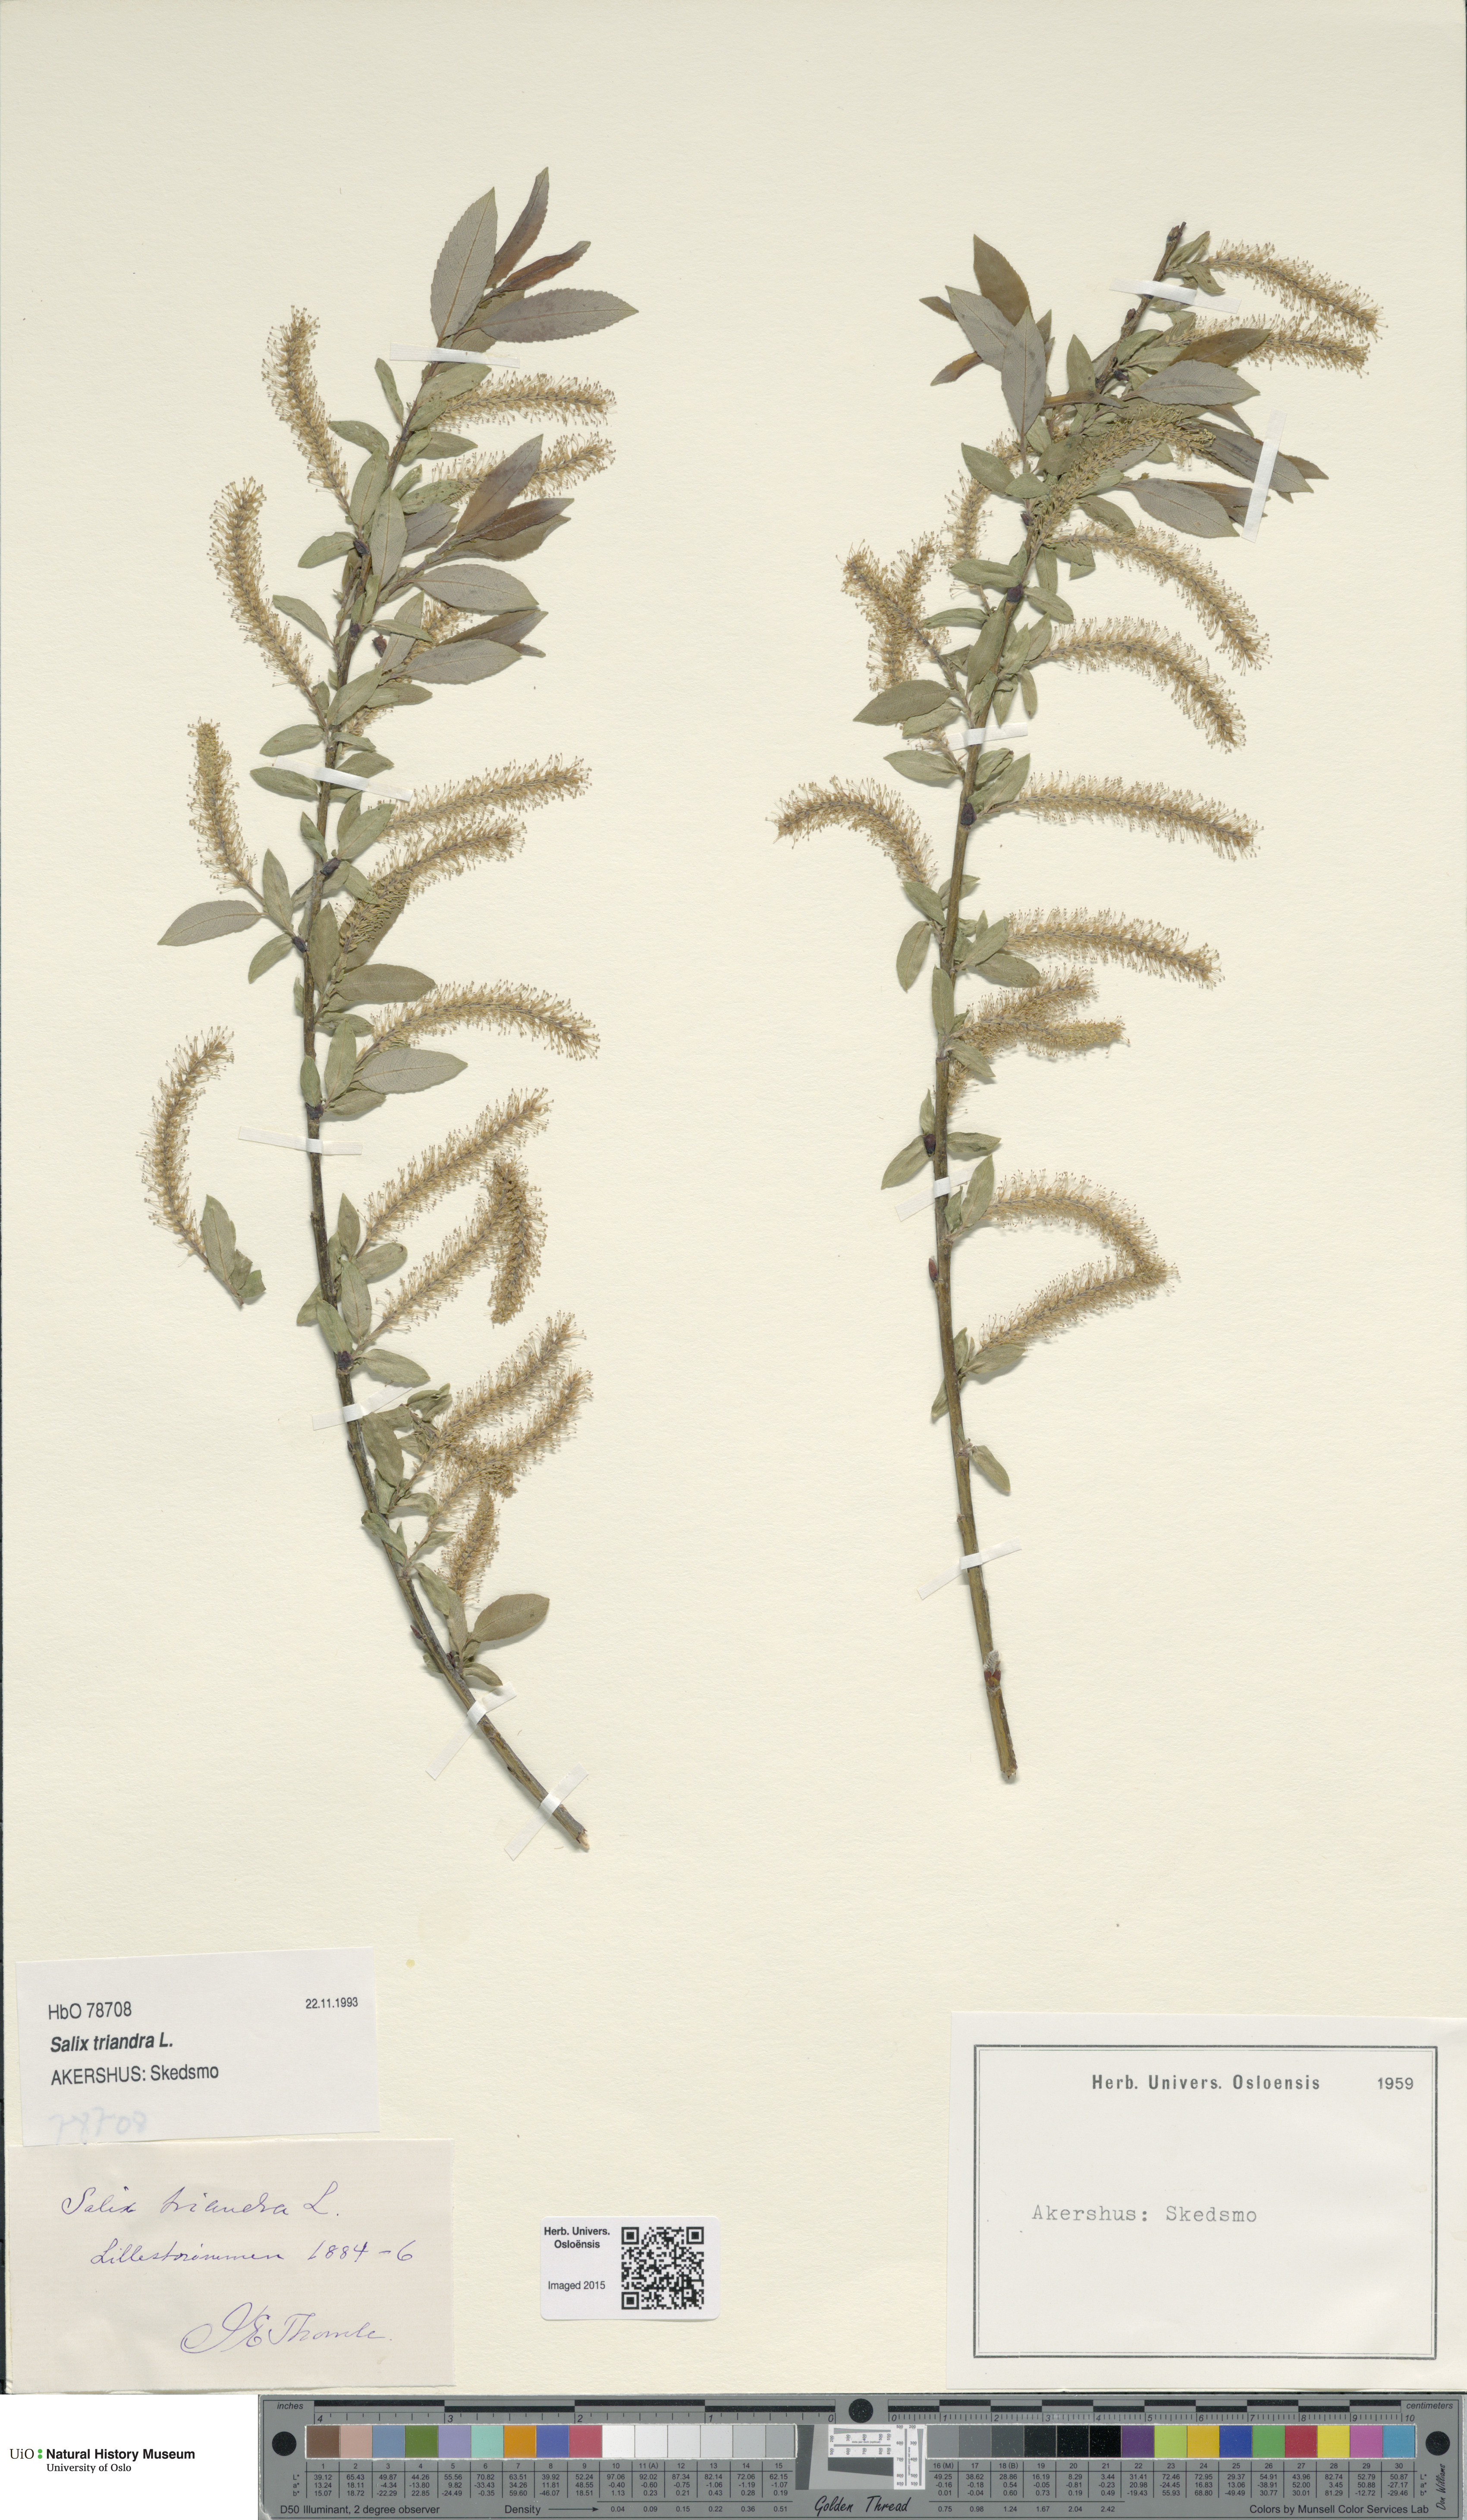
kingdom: Plantae
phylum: Tracheophyta
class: Magnoliopsida
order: Malpighiales
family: Salicaceae
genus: Salix
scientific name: Salix triandra
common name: Almond willow
